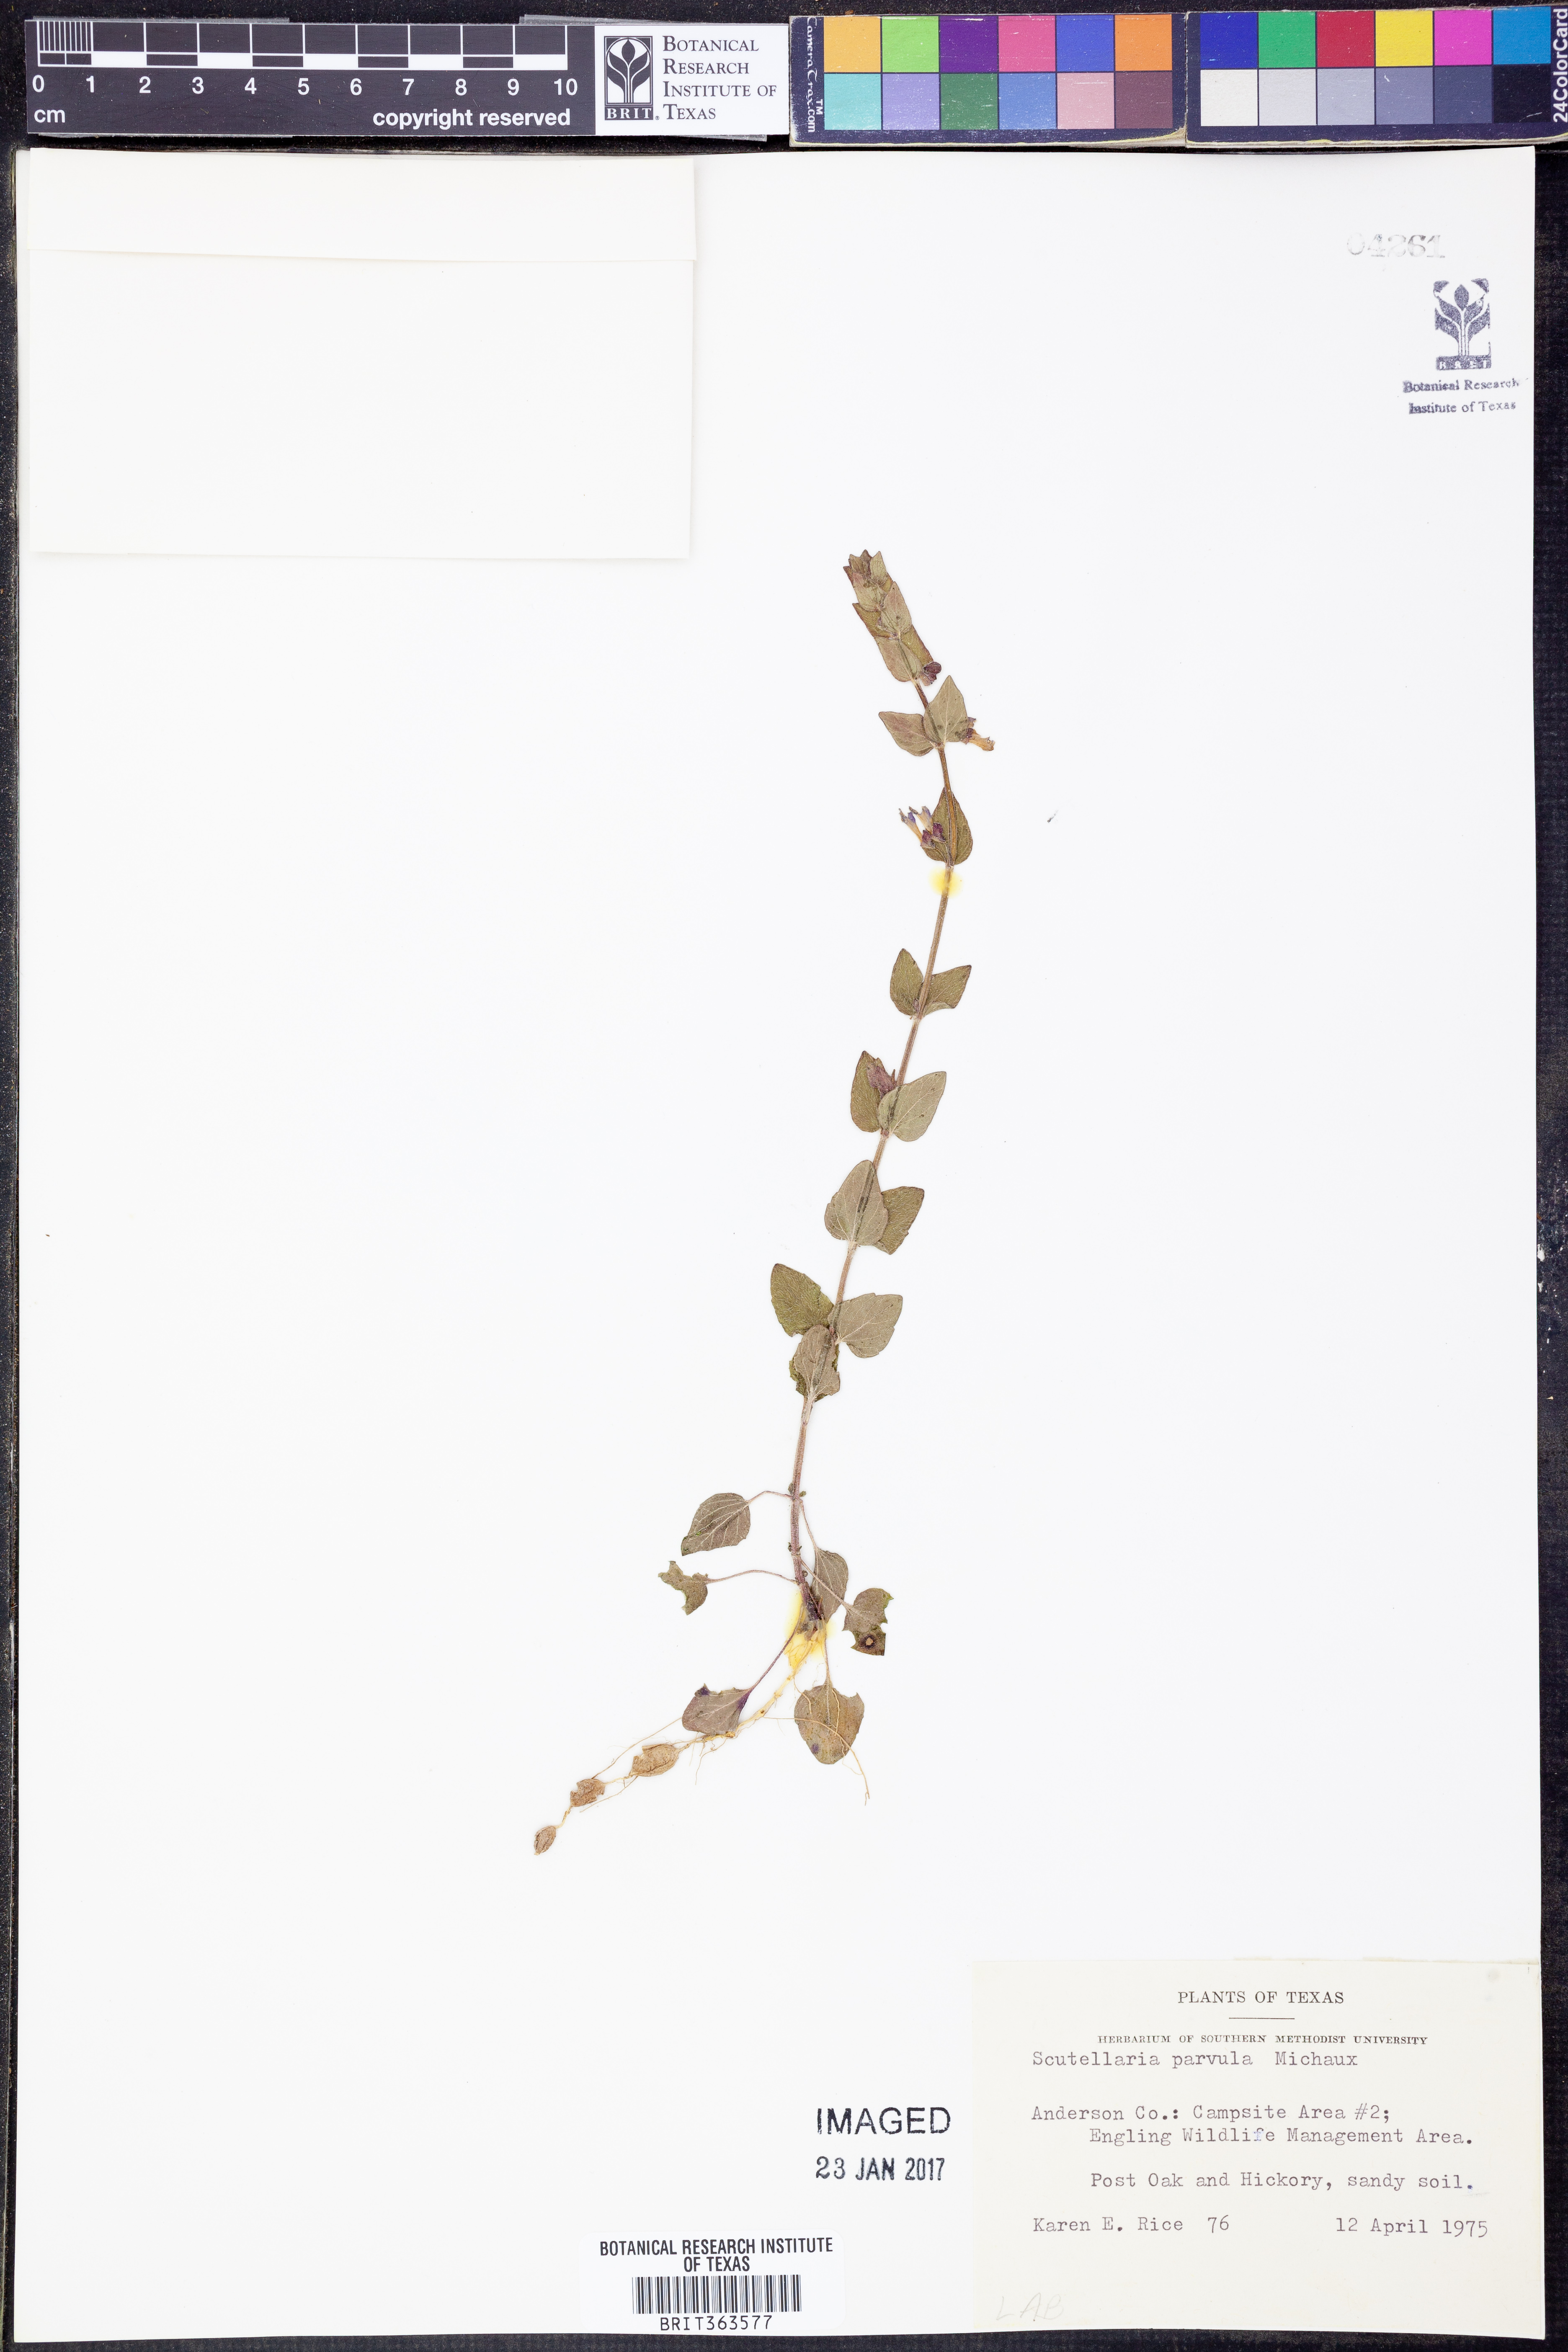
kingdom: Plantae
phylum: Tracheophyta
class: Magnoliopsida
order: Lamiales
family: Lamiaceae
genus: Scutellaria
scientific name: Scutellaria parvula
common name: Little scullcap
